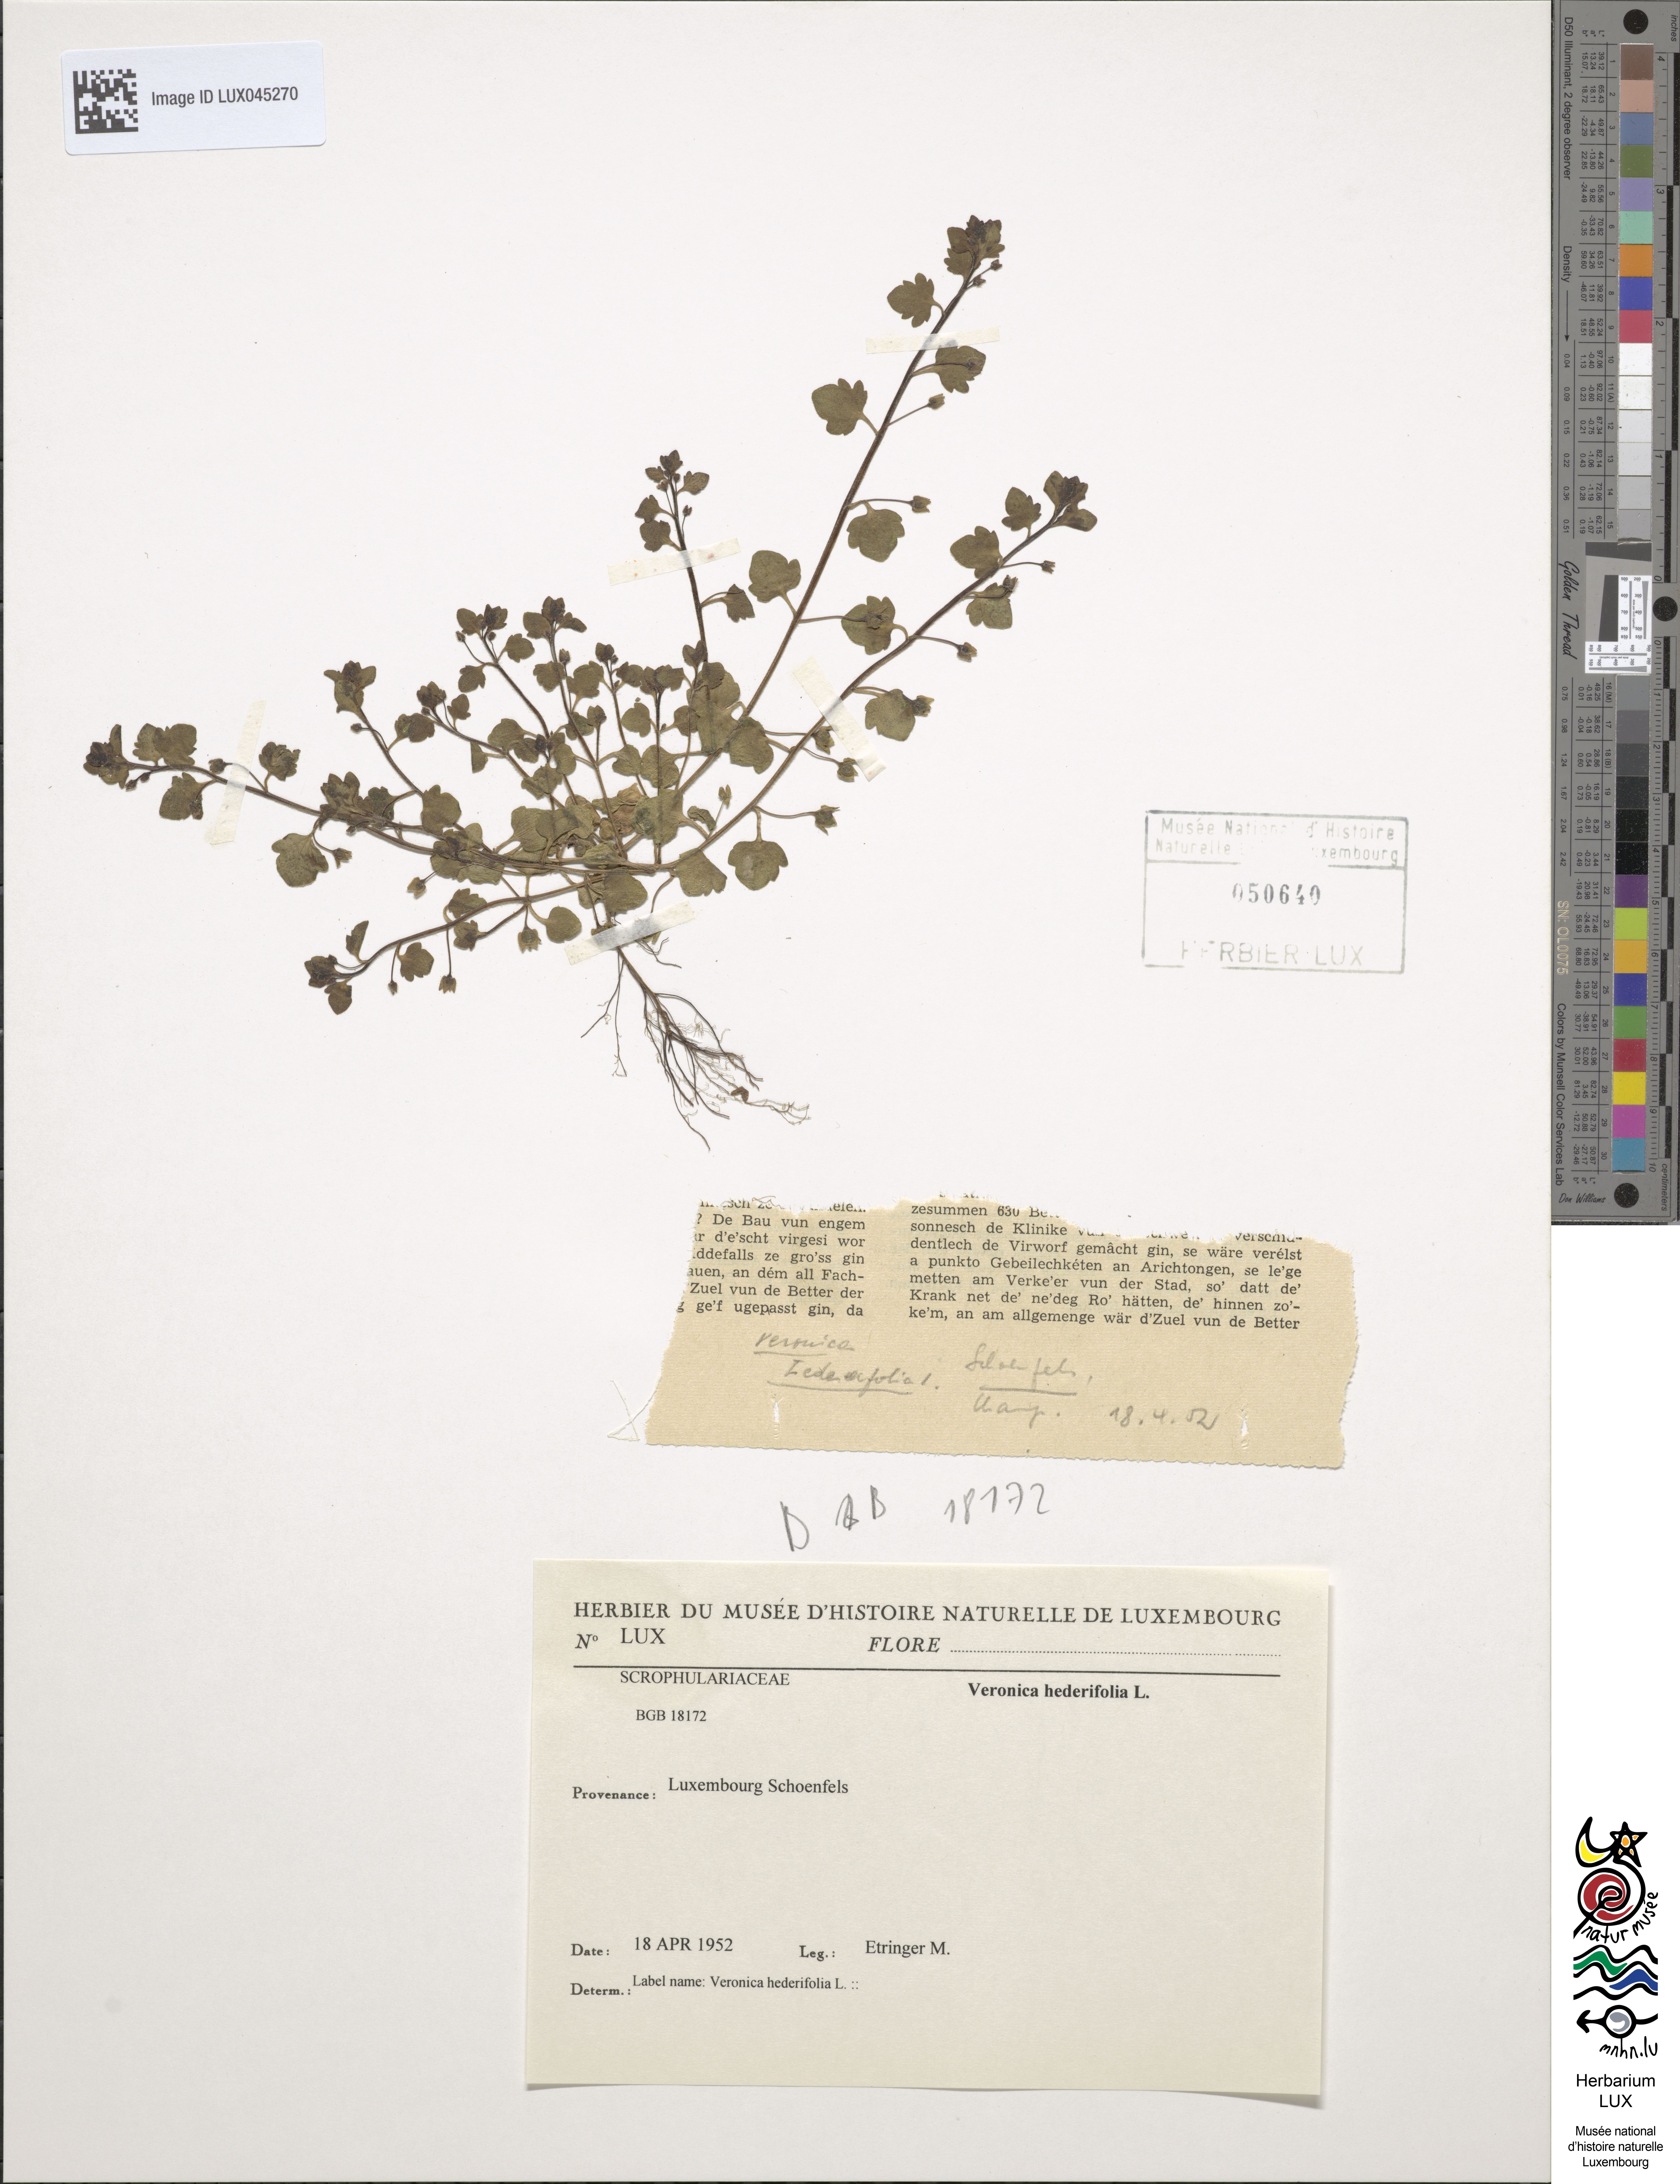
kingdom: Plantae
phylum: Tracheophyta
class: Magnoliopsida
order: Lamiales
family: Plantaginaceae
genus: Veronica
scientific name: Veronica hederifolia
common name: Ivy-leaved speedwell
